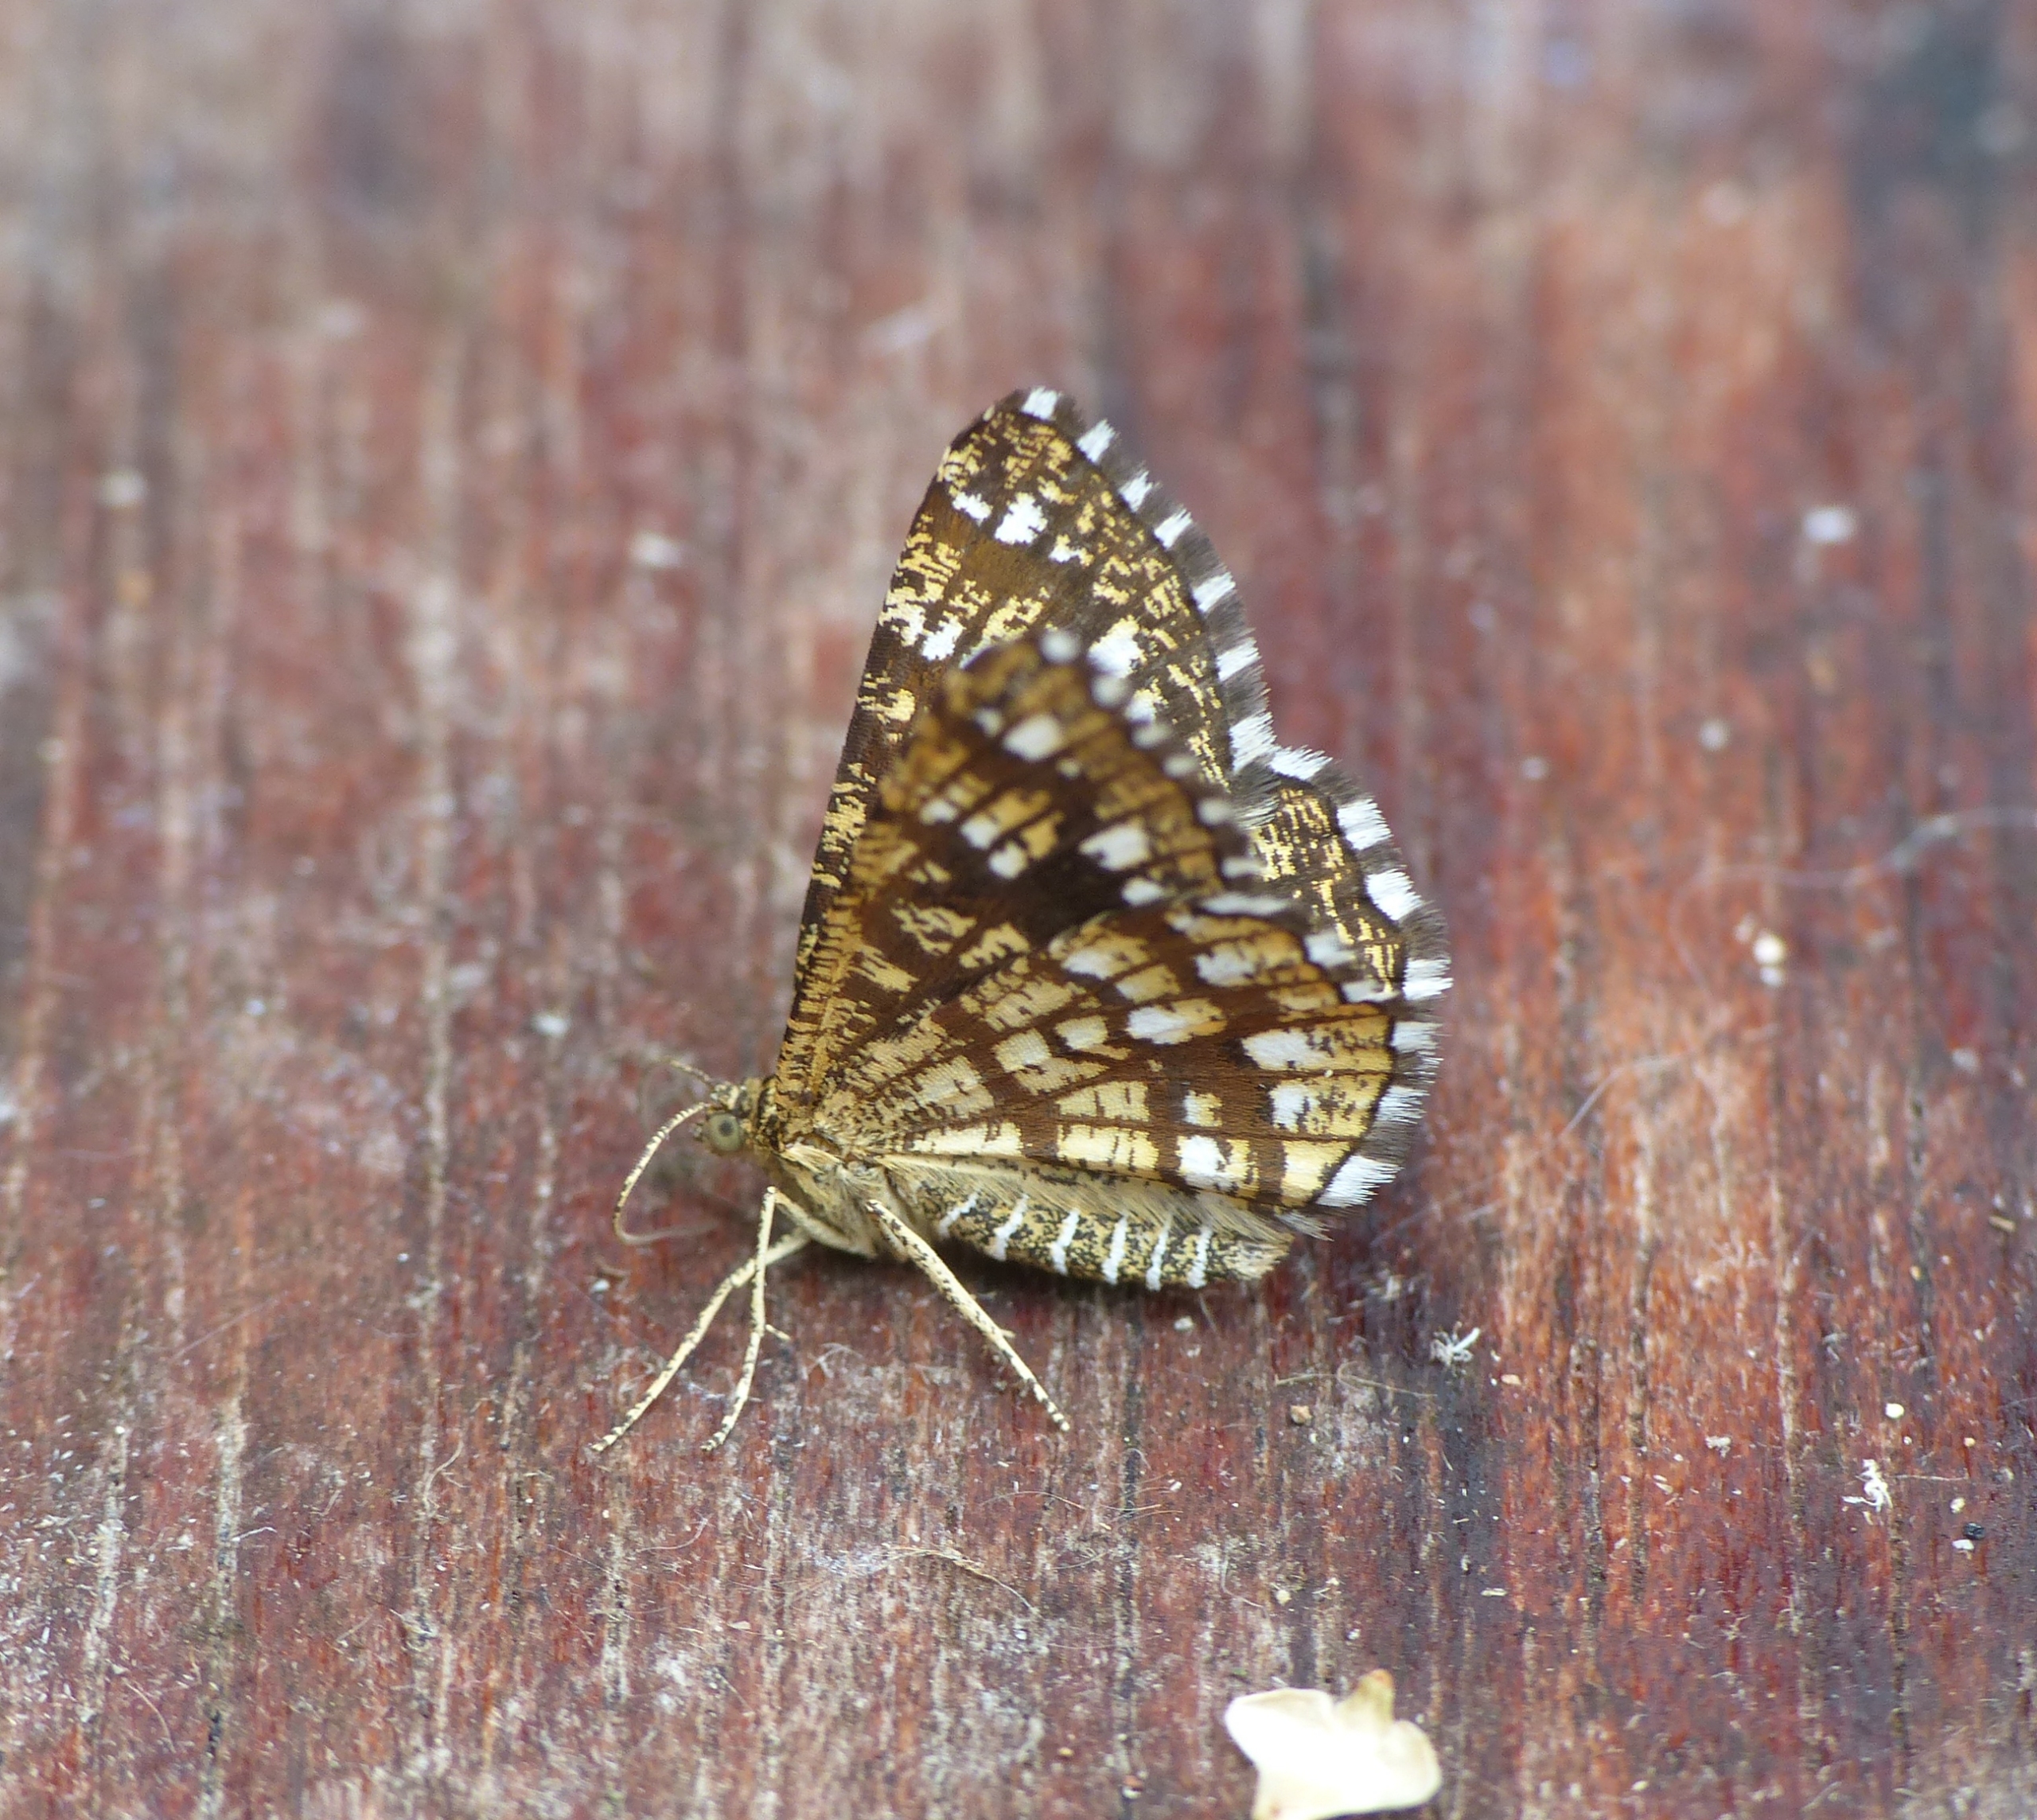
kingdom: Animalia
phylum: Arthropoda
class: Insecta
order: Lepidoptera
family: Geometridae
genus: Chiasmia
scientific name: Chiasmia clathrata
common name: Kløvermåler
